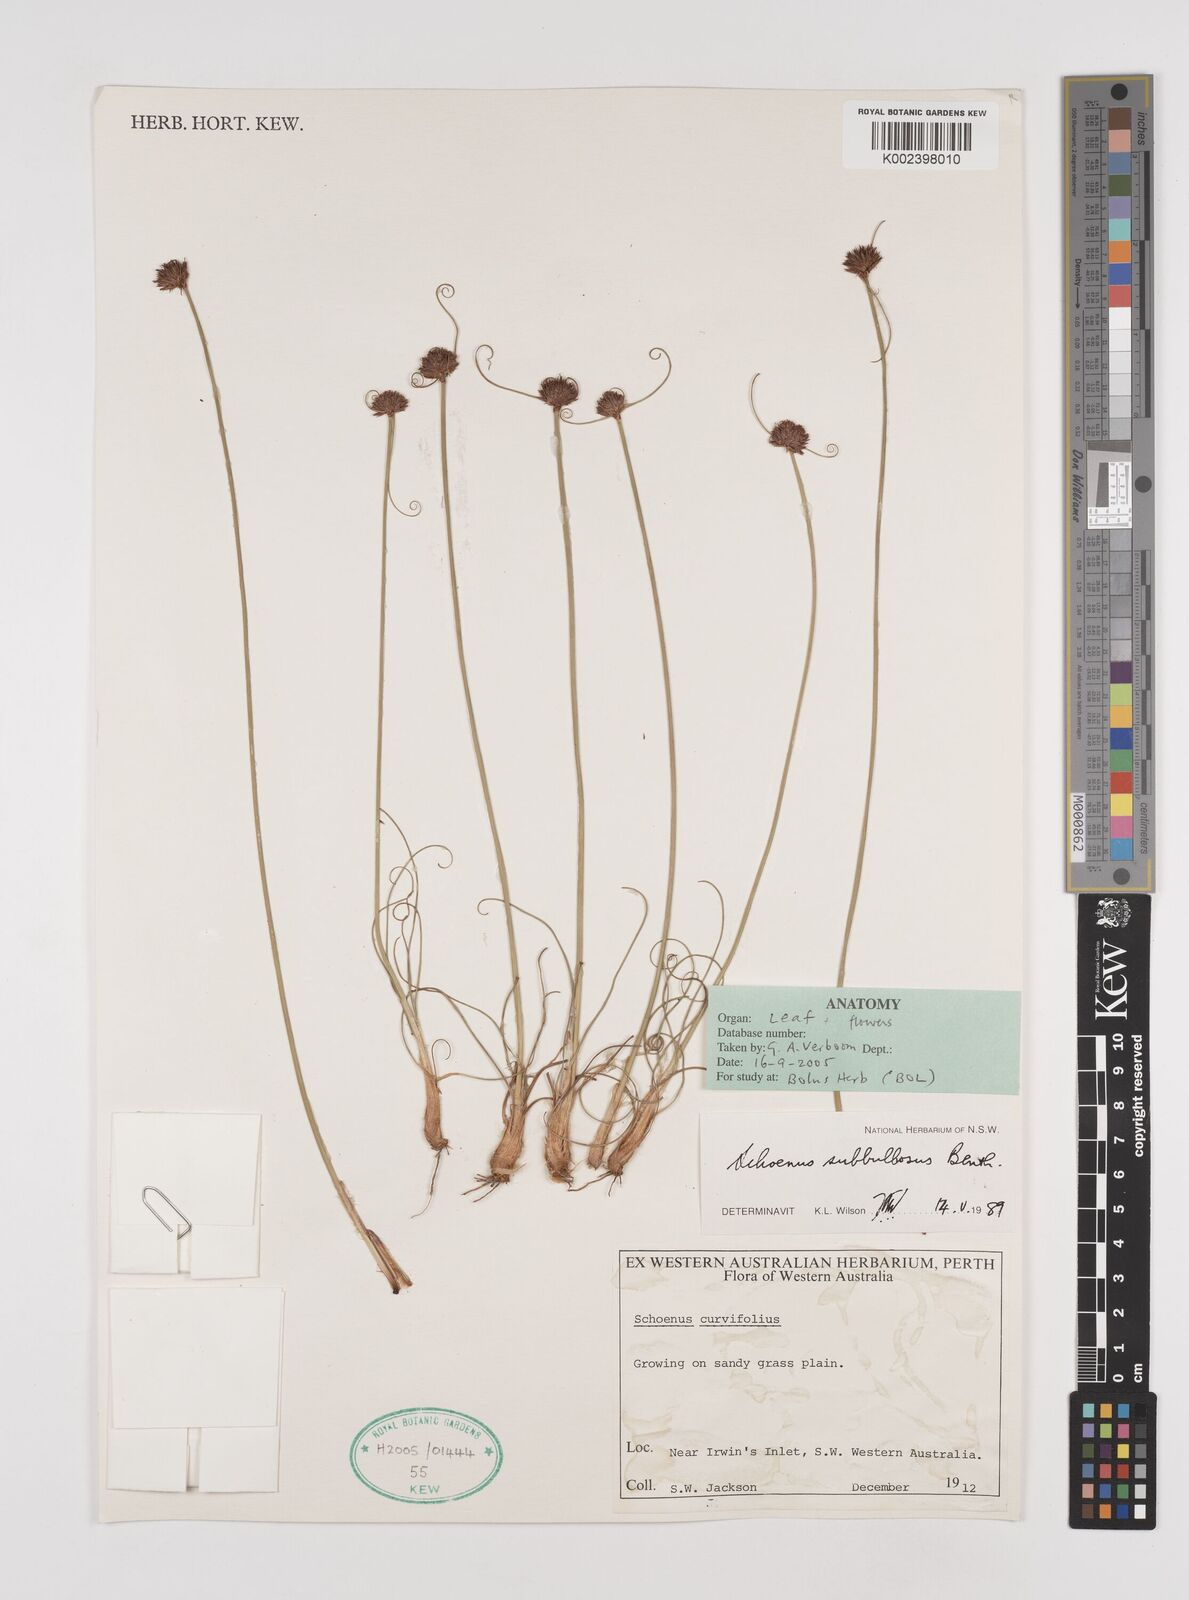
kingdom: Plantae
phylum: Tracheophyta
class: Liliopsida
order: Poales
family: Cyperaceae
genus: Schoenus
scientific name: Schoenus curvifolius
